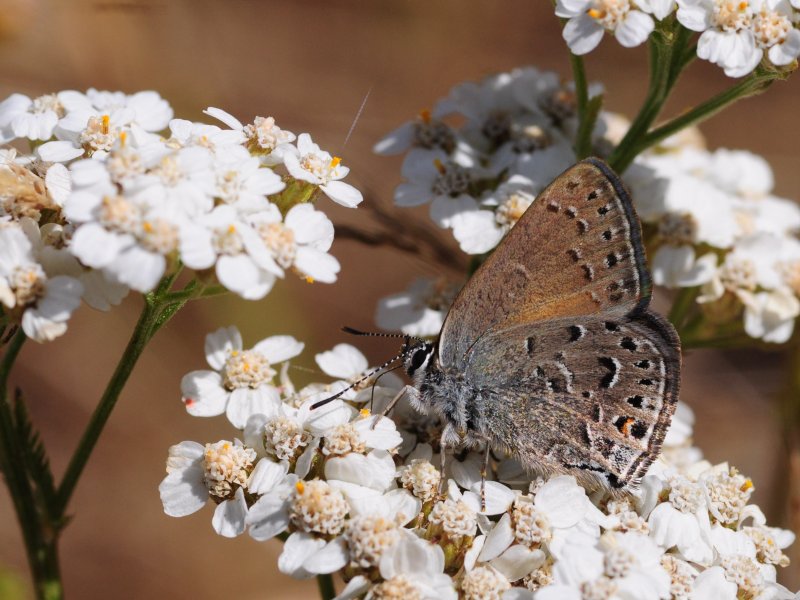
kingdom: Animalia
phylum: Arthropoda
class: Insecta
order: Lepidoptera
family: Lycaenidae
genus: Satyrium
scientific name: Satyrium behrii
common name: Behr's Hairstreak
